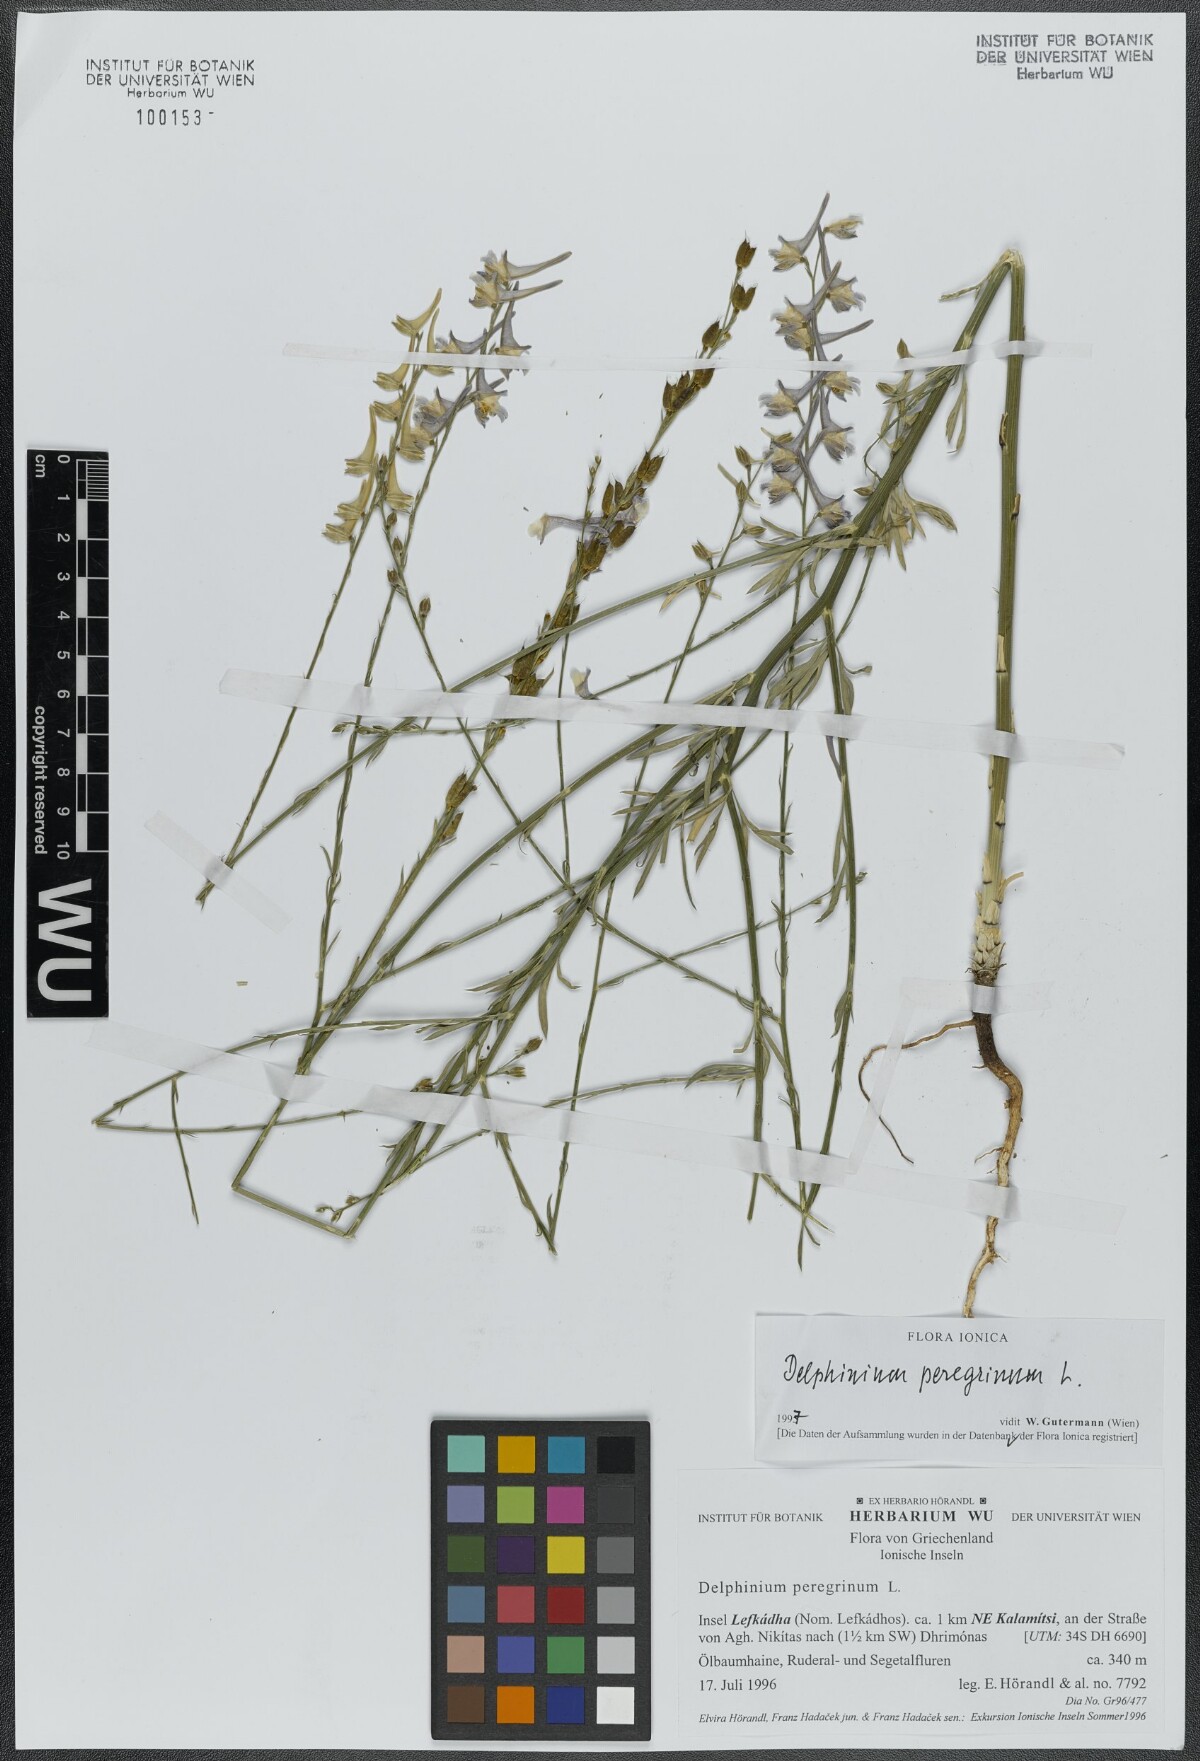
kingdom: Plantae
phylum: Tracheophyta
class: Magnoliopsida
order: Ranunculales
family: Ranunculaceae
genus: Delphinium
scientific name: Delphinium peregrinum
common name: Violet larkspur
